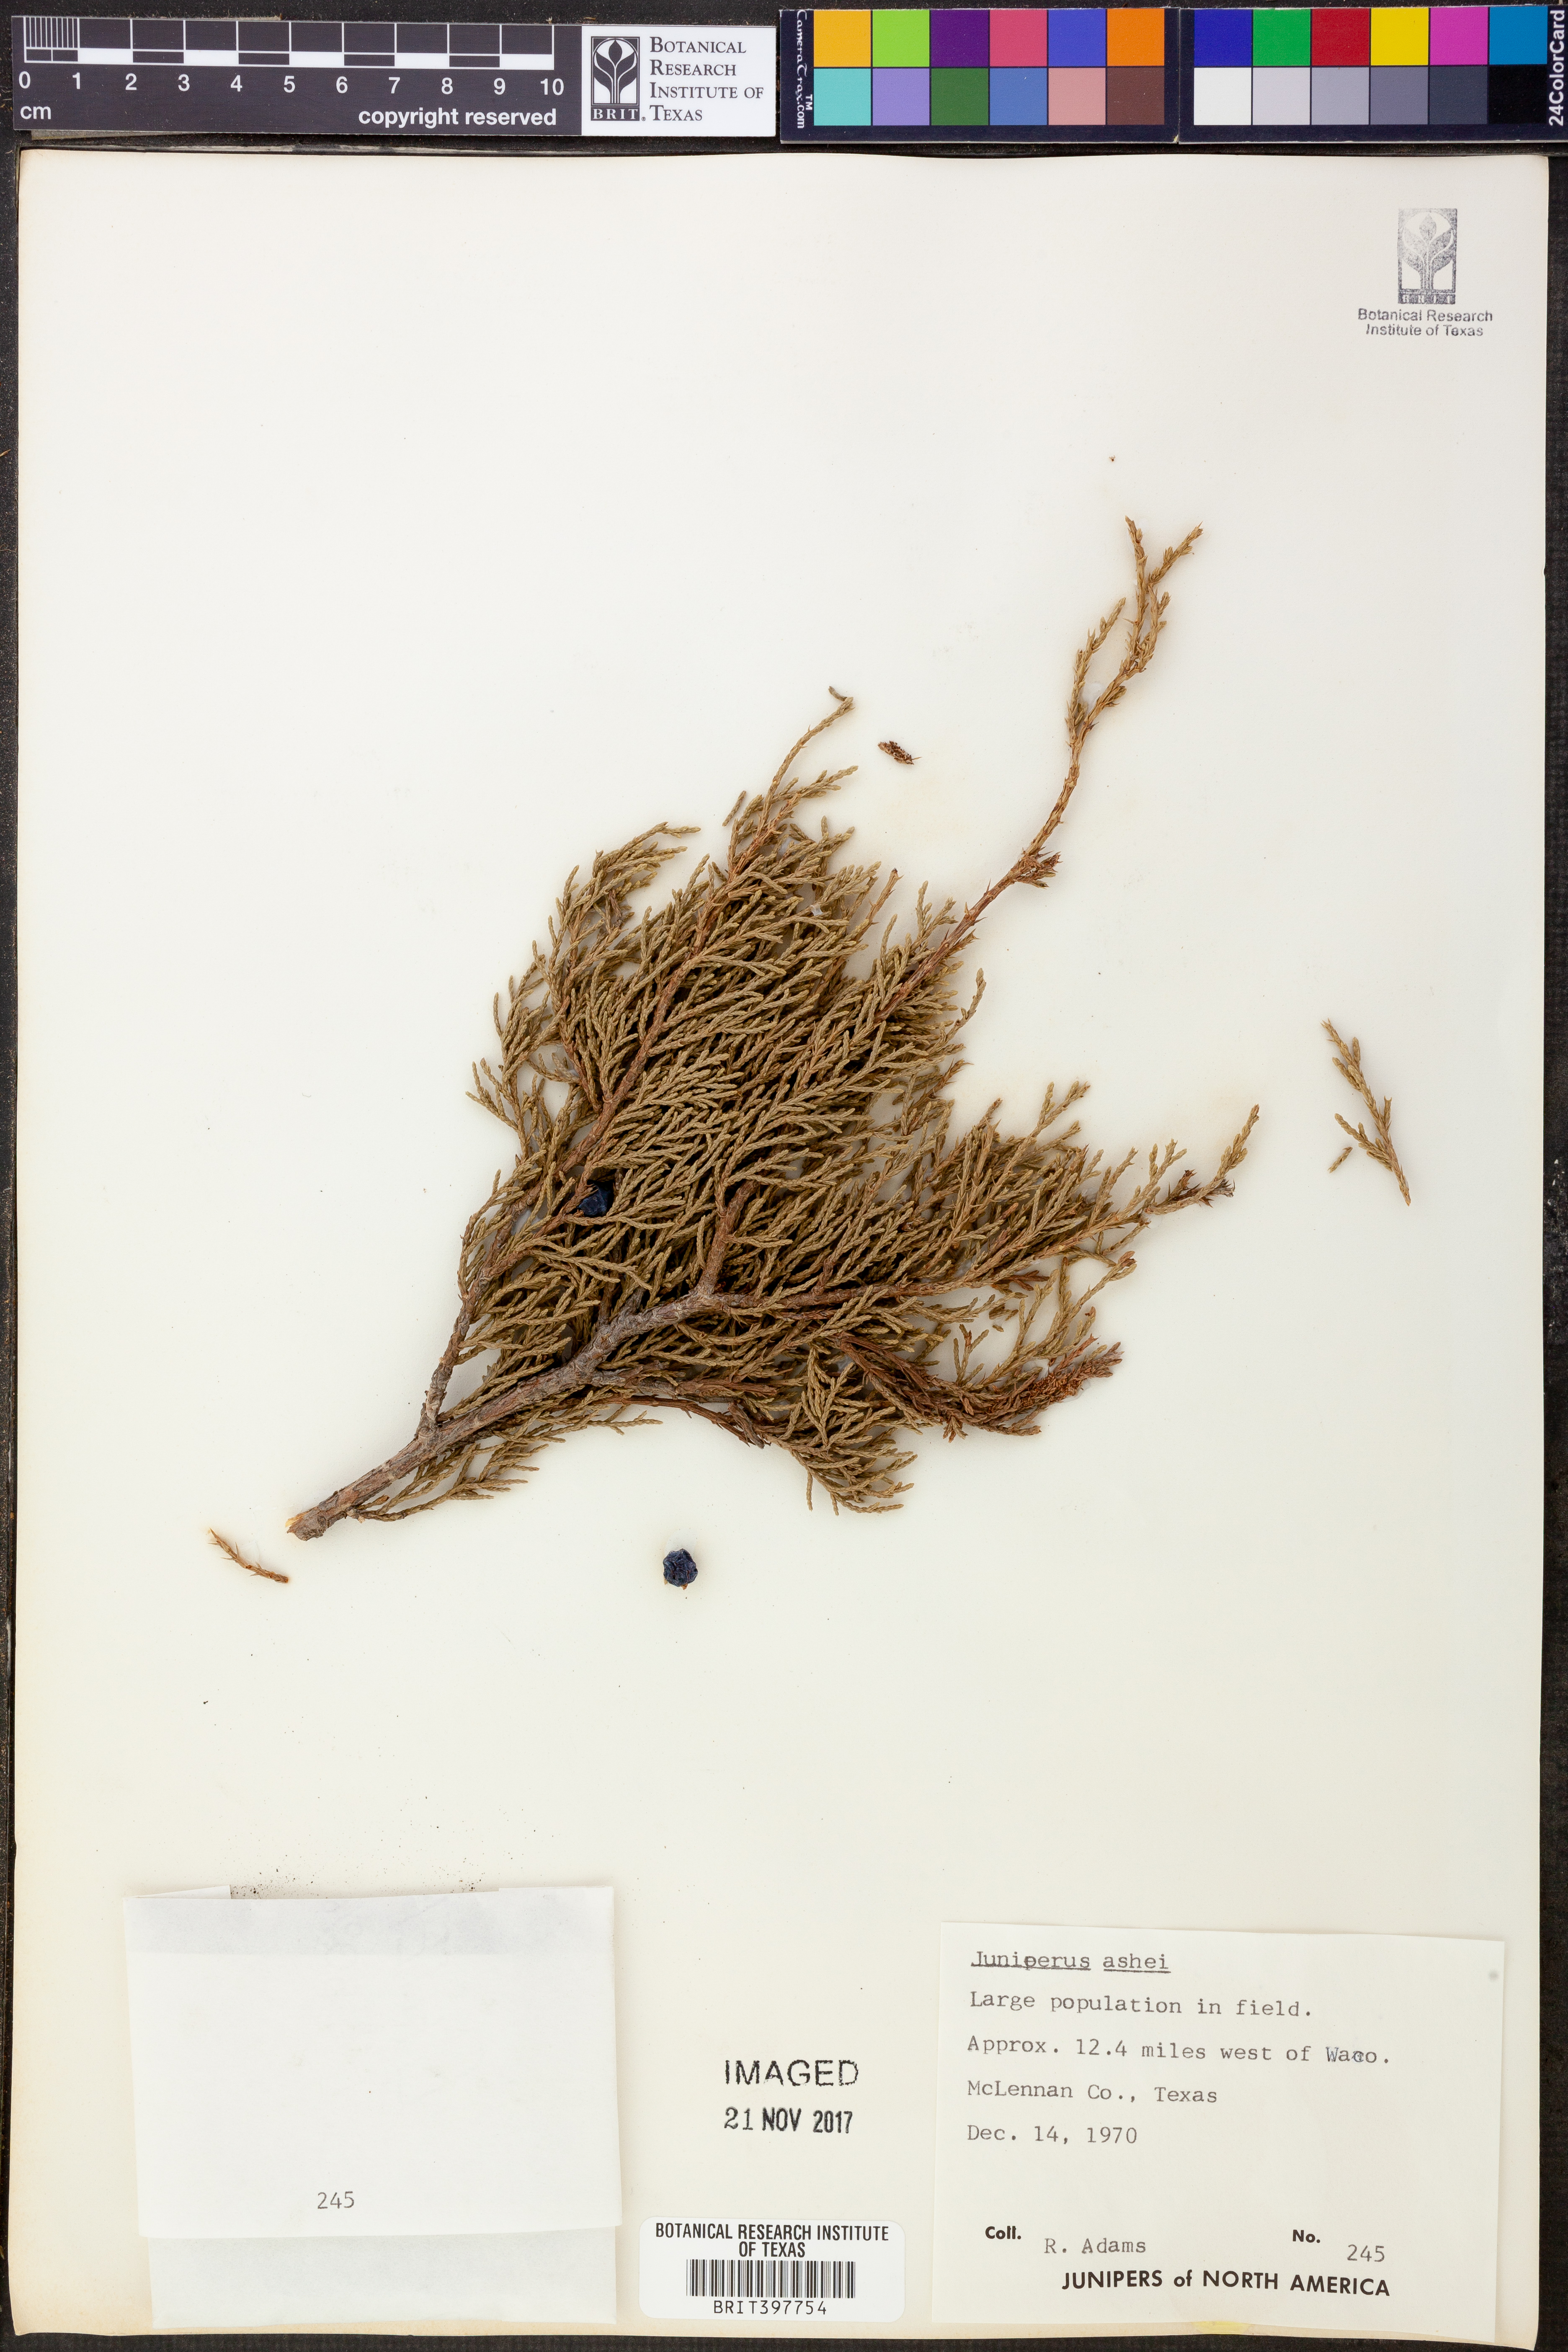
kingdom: Plantae
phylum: Tracheophyta
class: Pinopsida
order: Pinales
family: Cupressaceae
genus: Juniperus
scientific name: Juniperus ashei
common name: Mexican juniper
